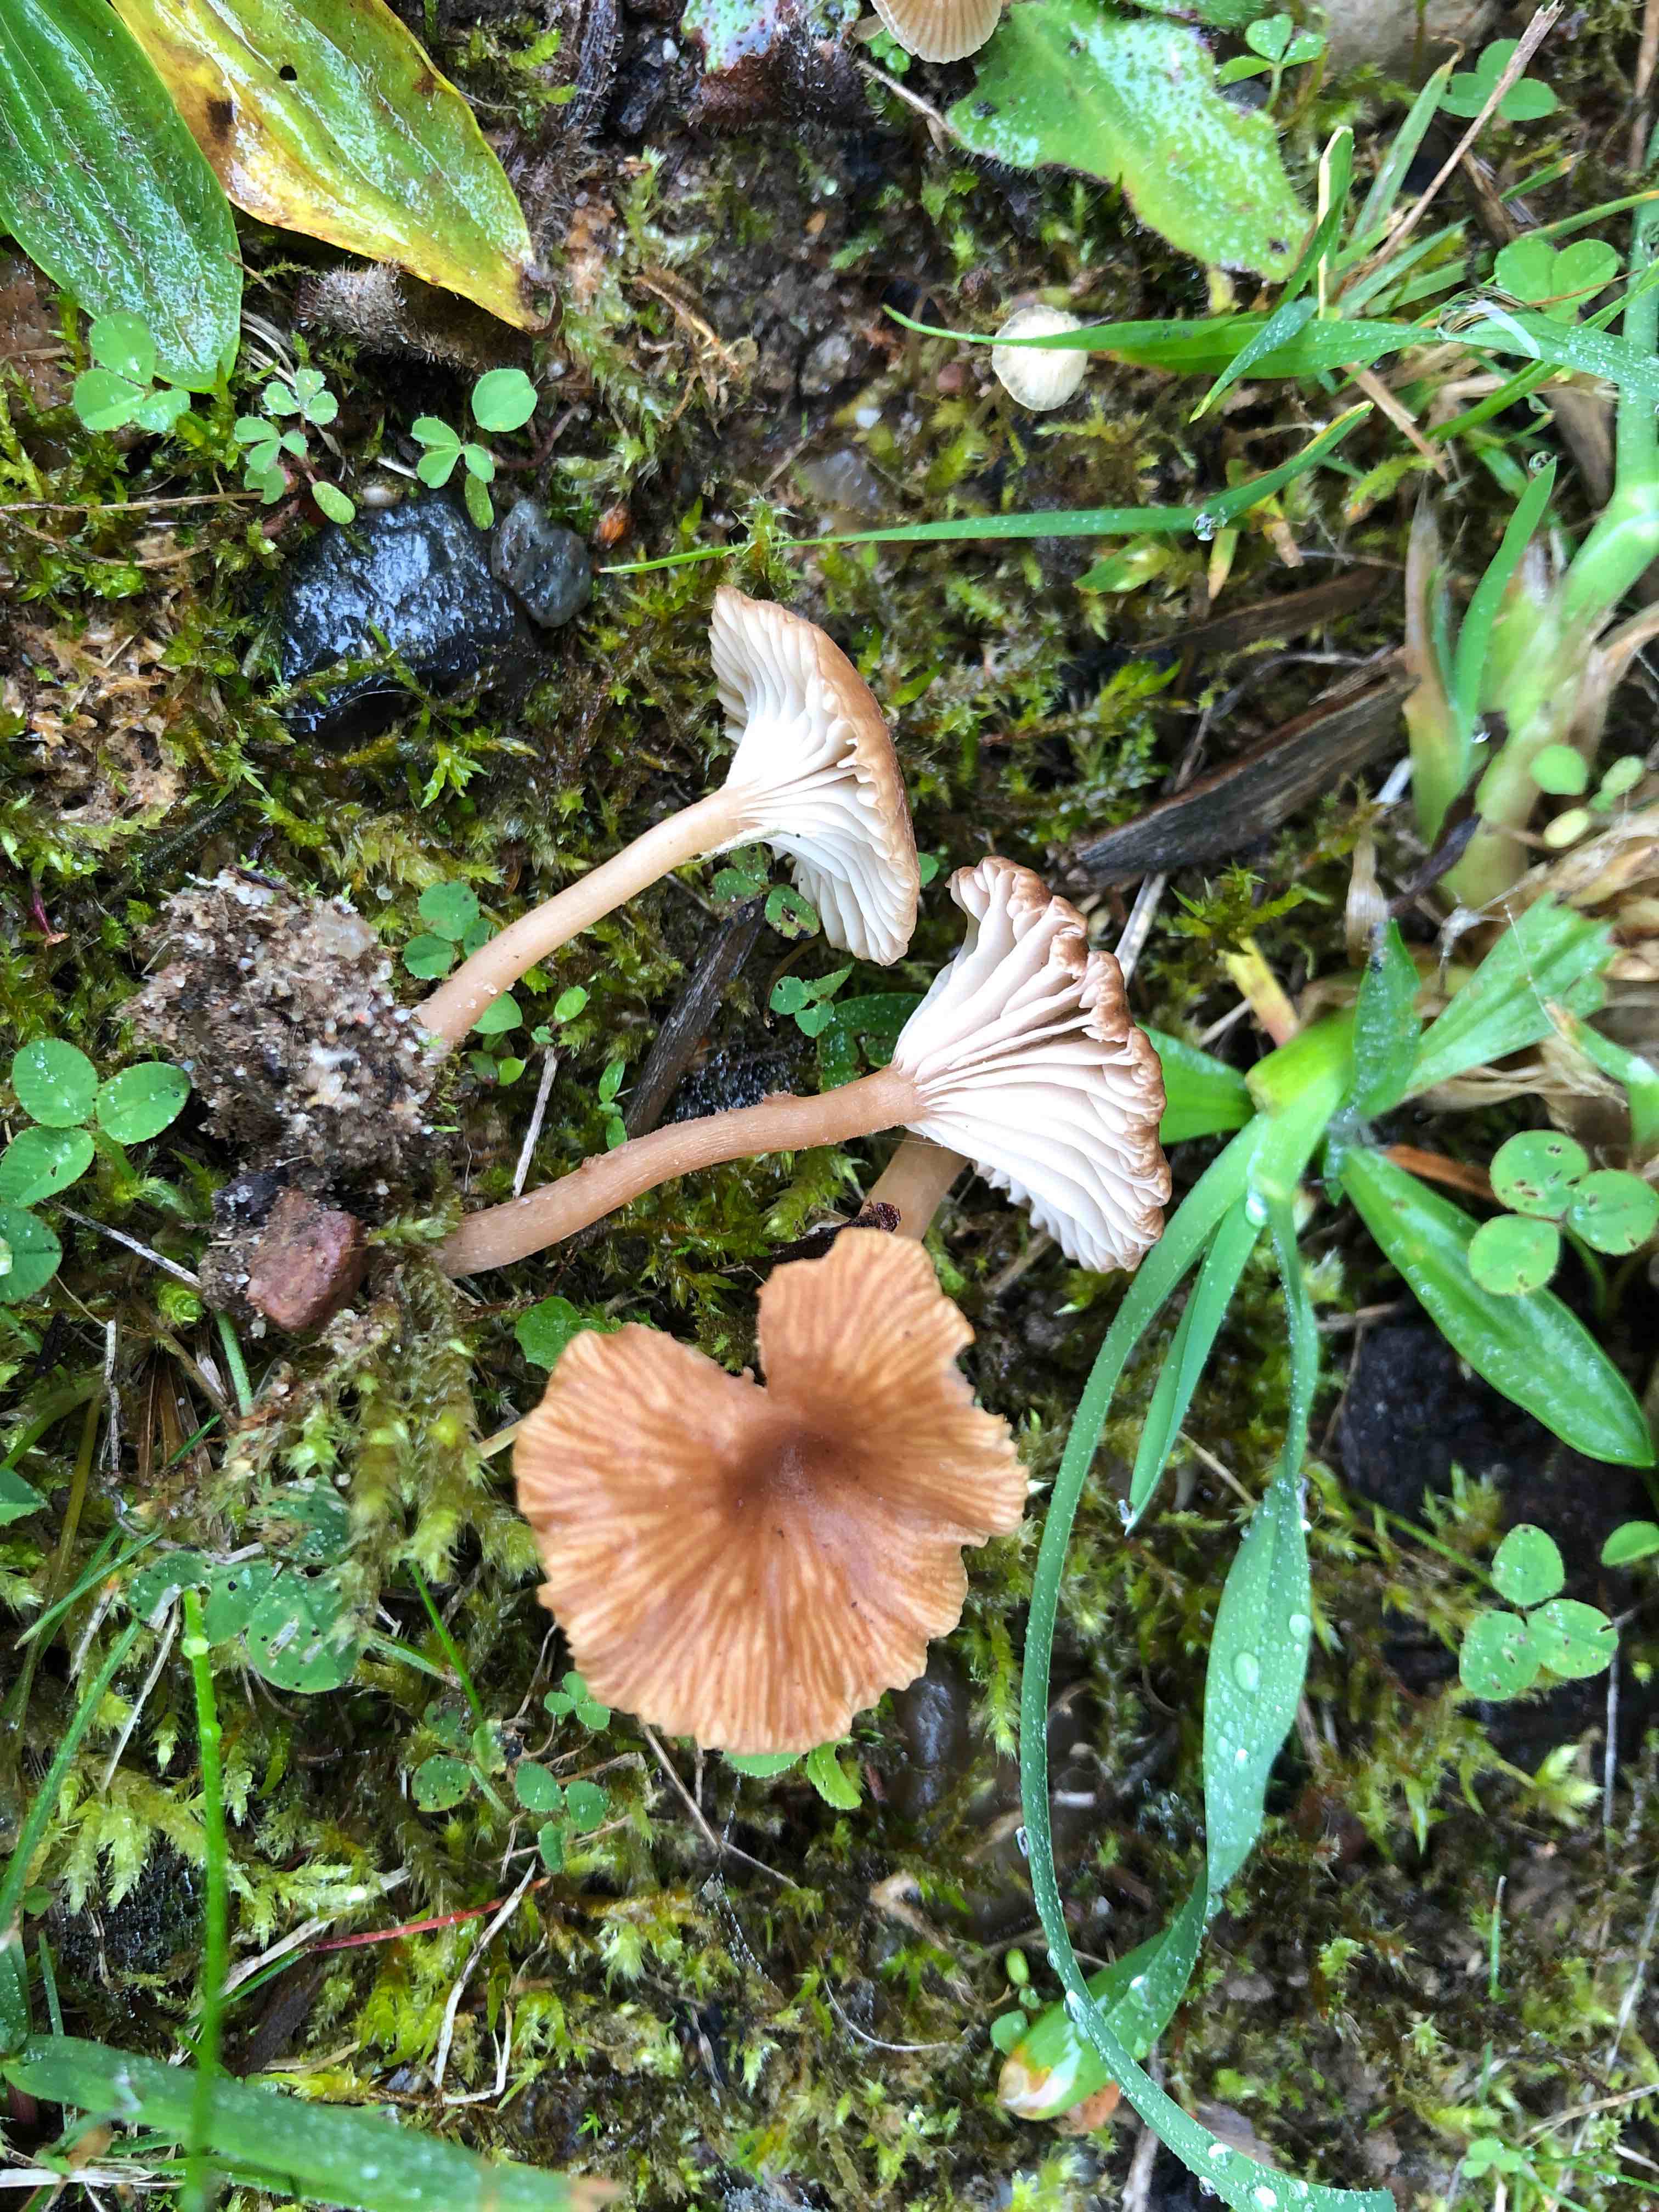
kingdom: Fungi
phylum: Basidiomycota
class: Agaricomycetes
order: Agaricales
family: Tricholomataceae
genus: Omphalina
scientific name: Omphalina pyxidata
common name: rødbrun navlehat
